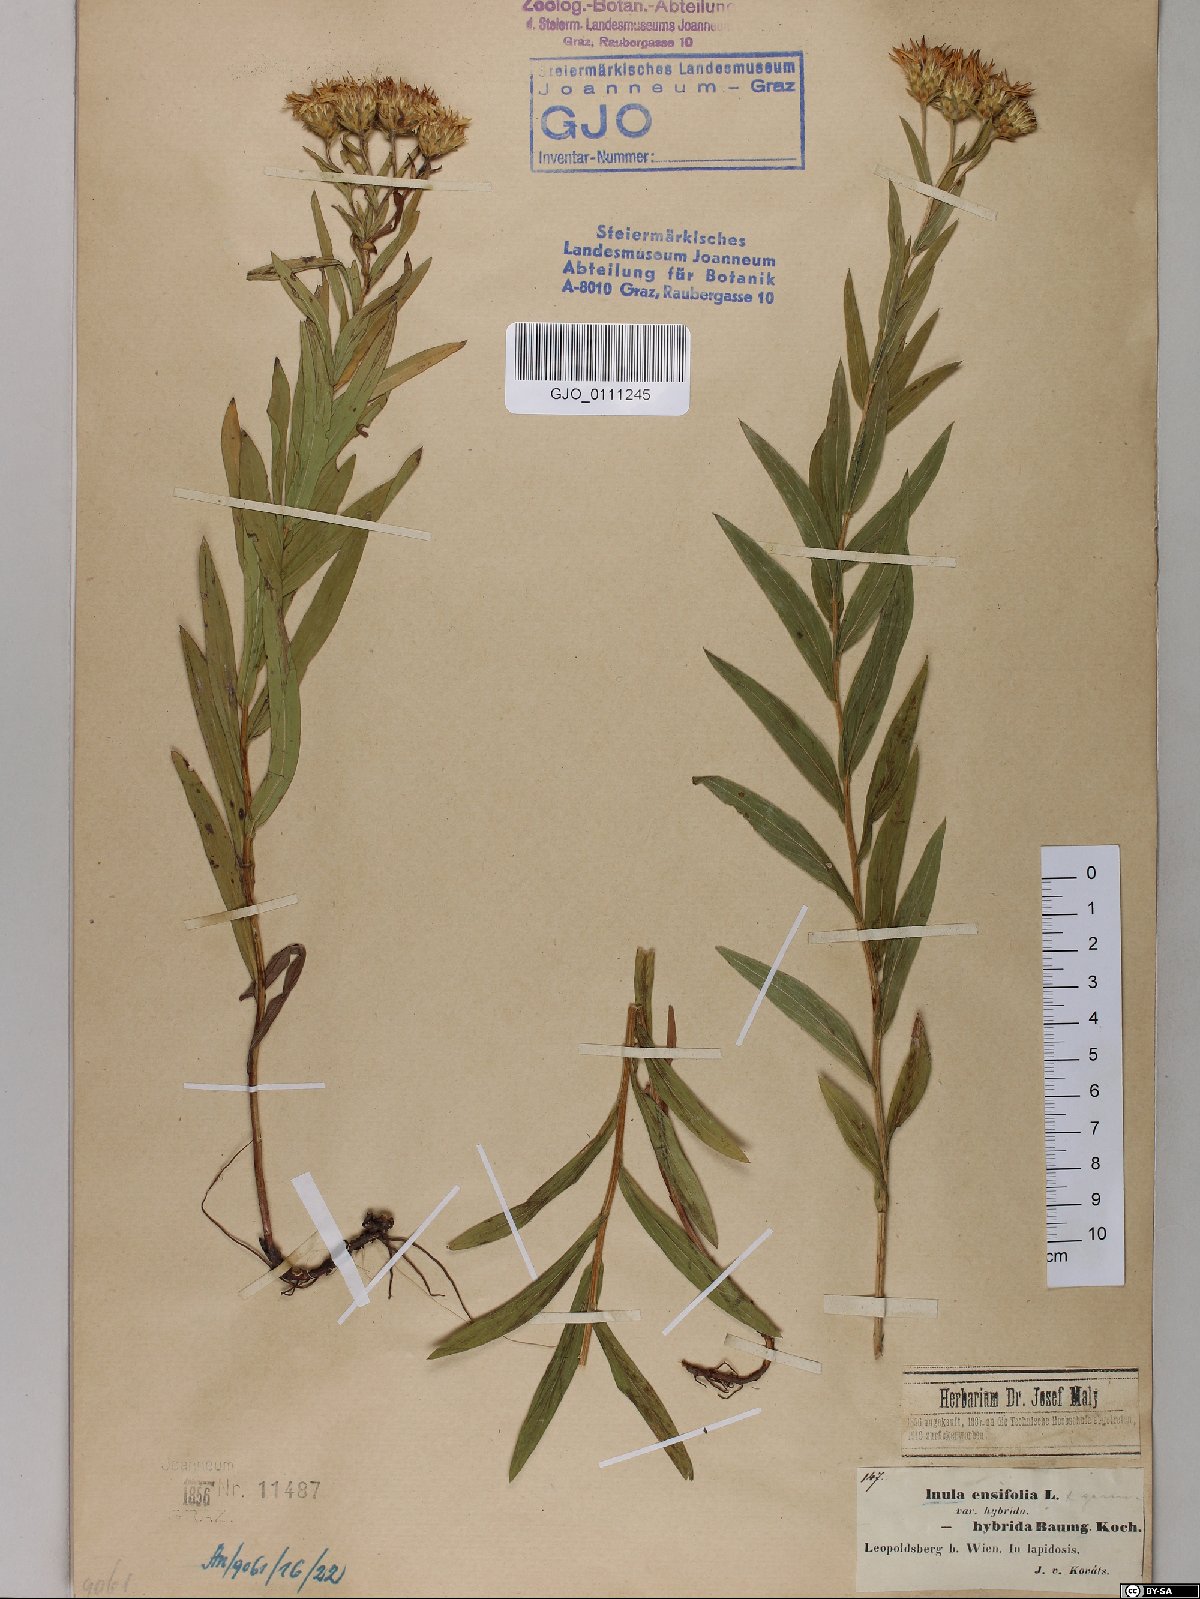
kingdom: Plantae
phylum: Tracheophyta
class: Magnoliopsida
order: Asterales
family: Asteraceae
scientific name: Asteraceae
